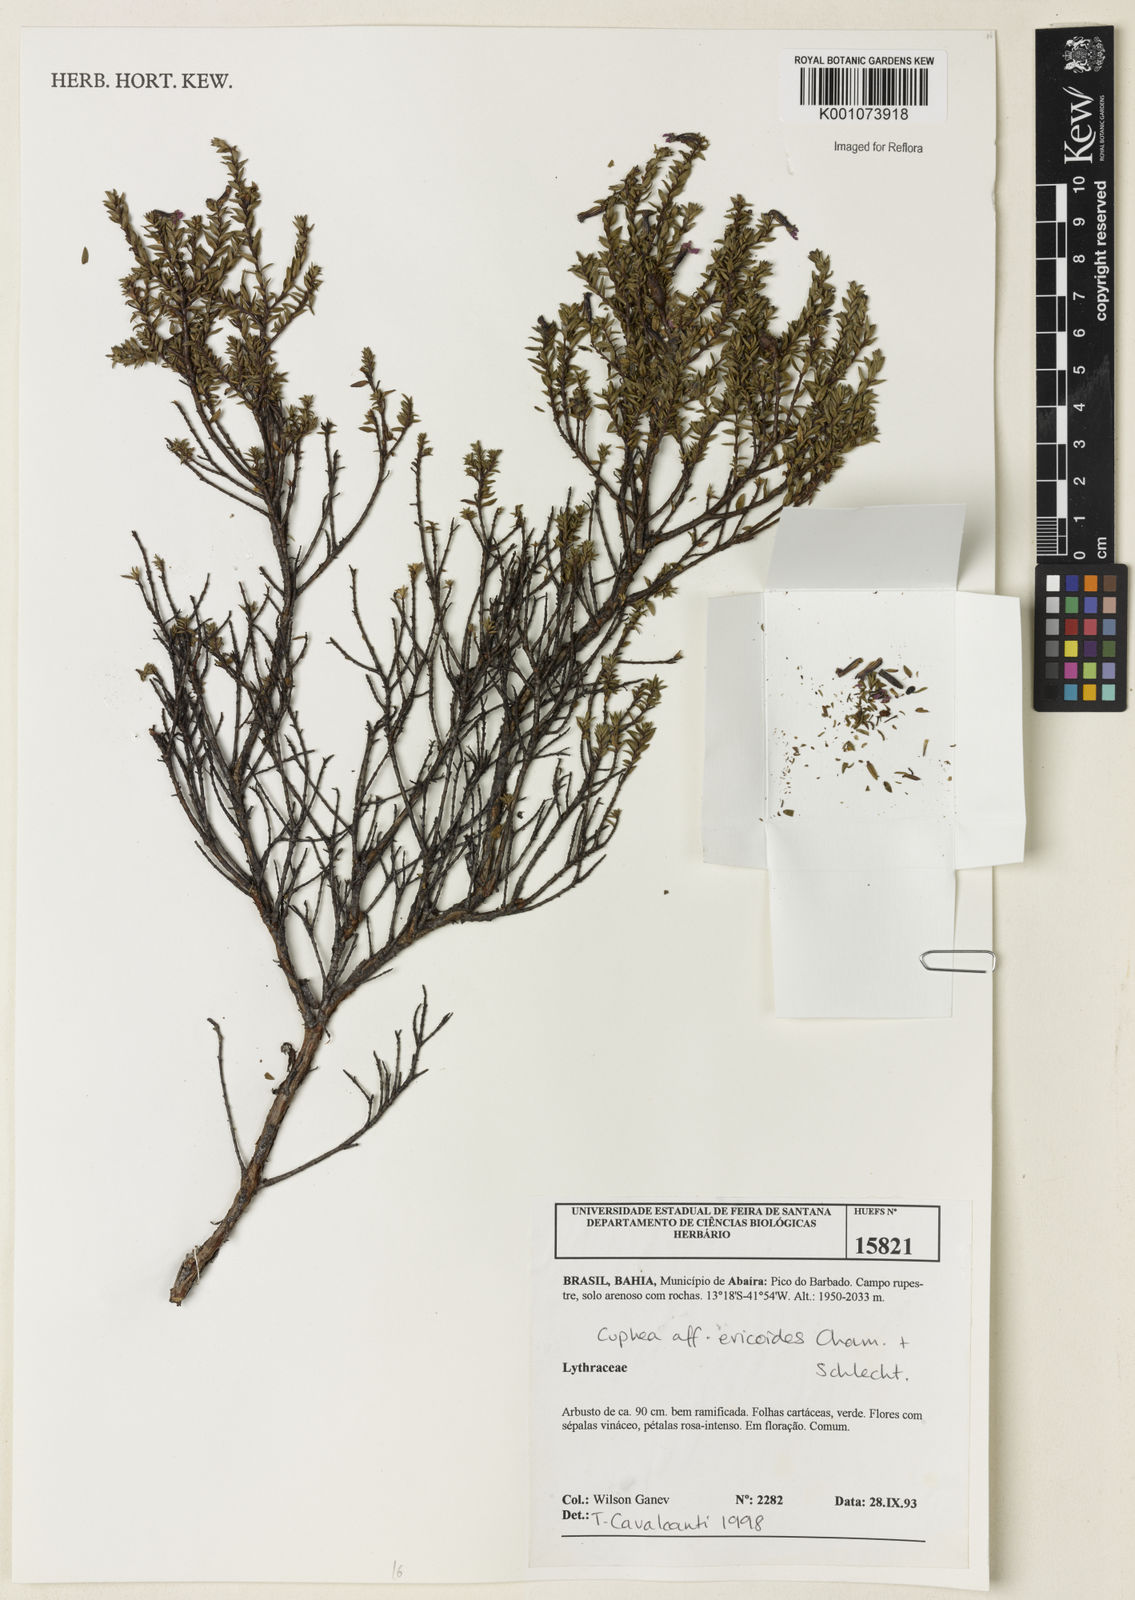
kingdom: Plantae
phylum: Tracheophyta
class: Magnoliopsida
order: Myrtales
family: Lythraceae
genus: Cuphea
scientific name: Cuphea ericoides
